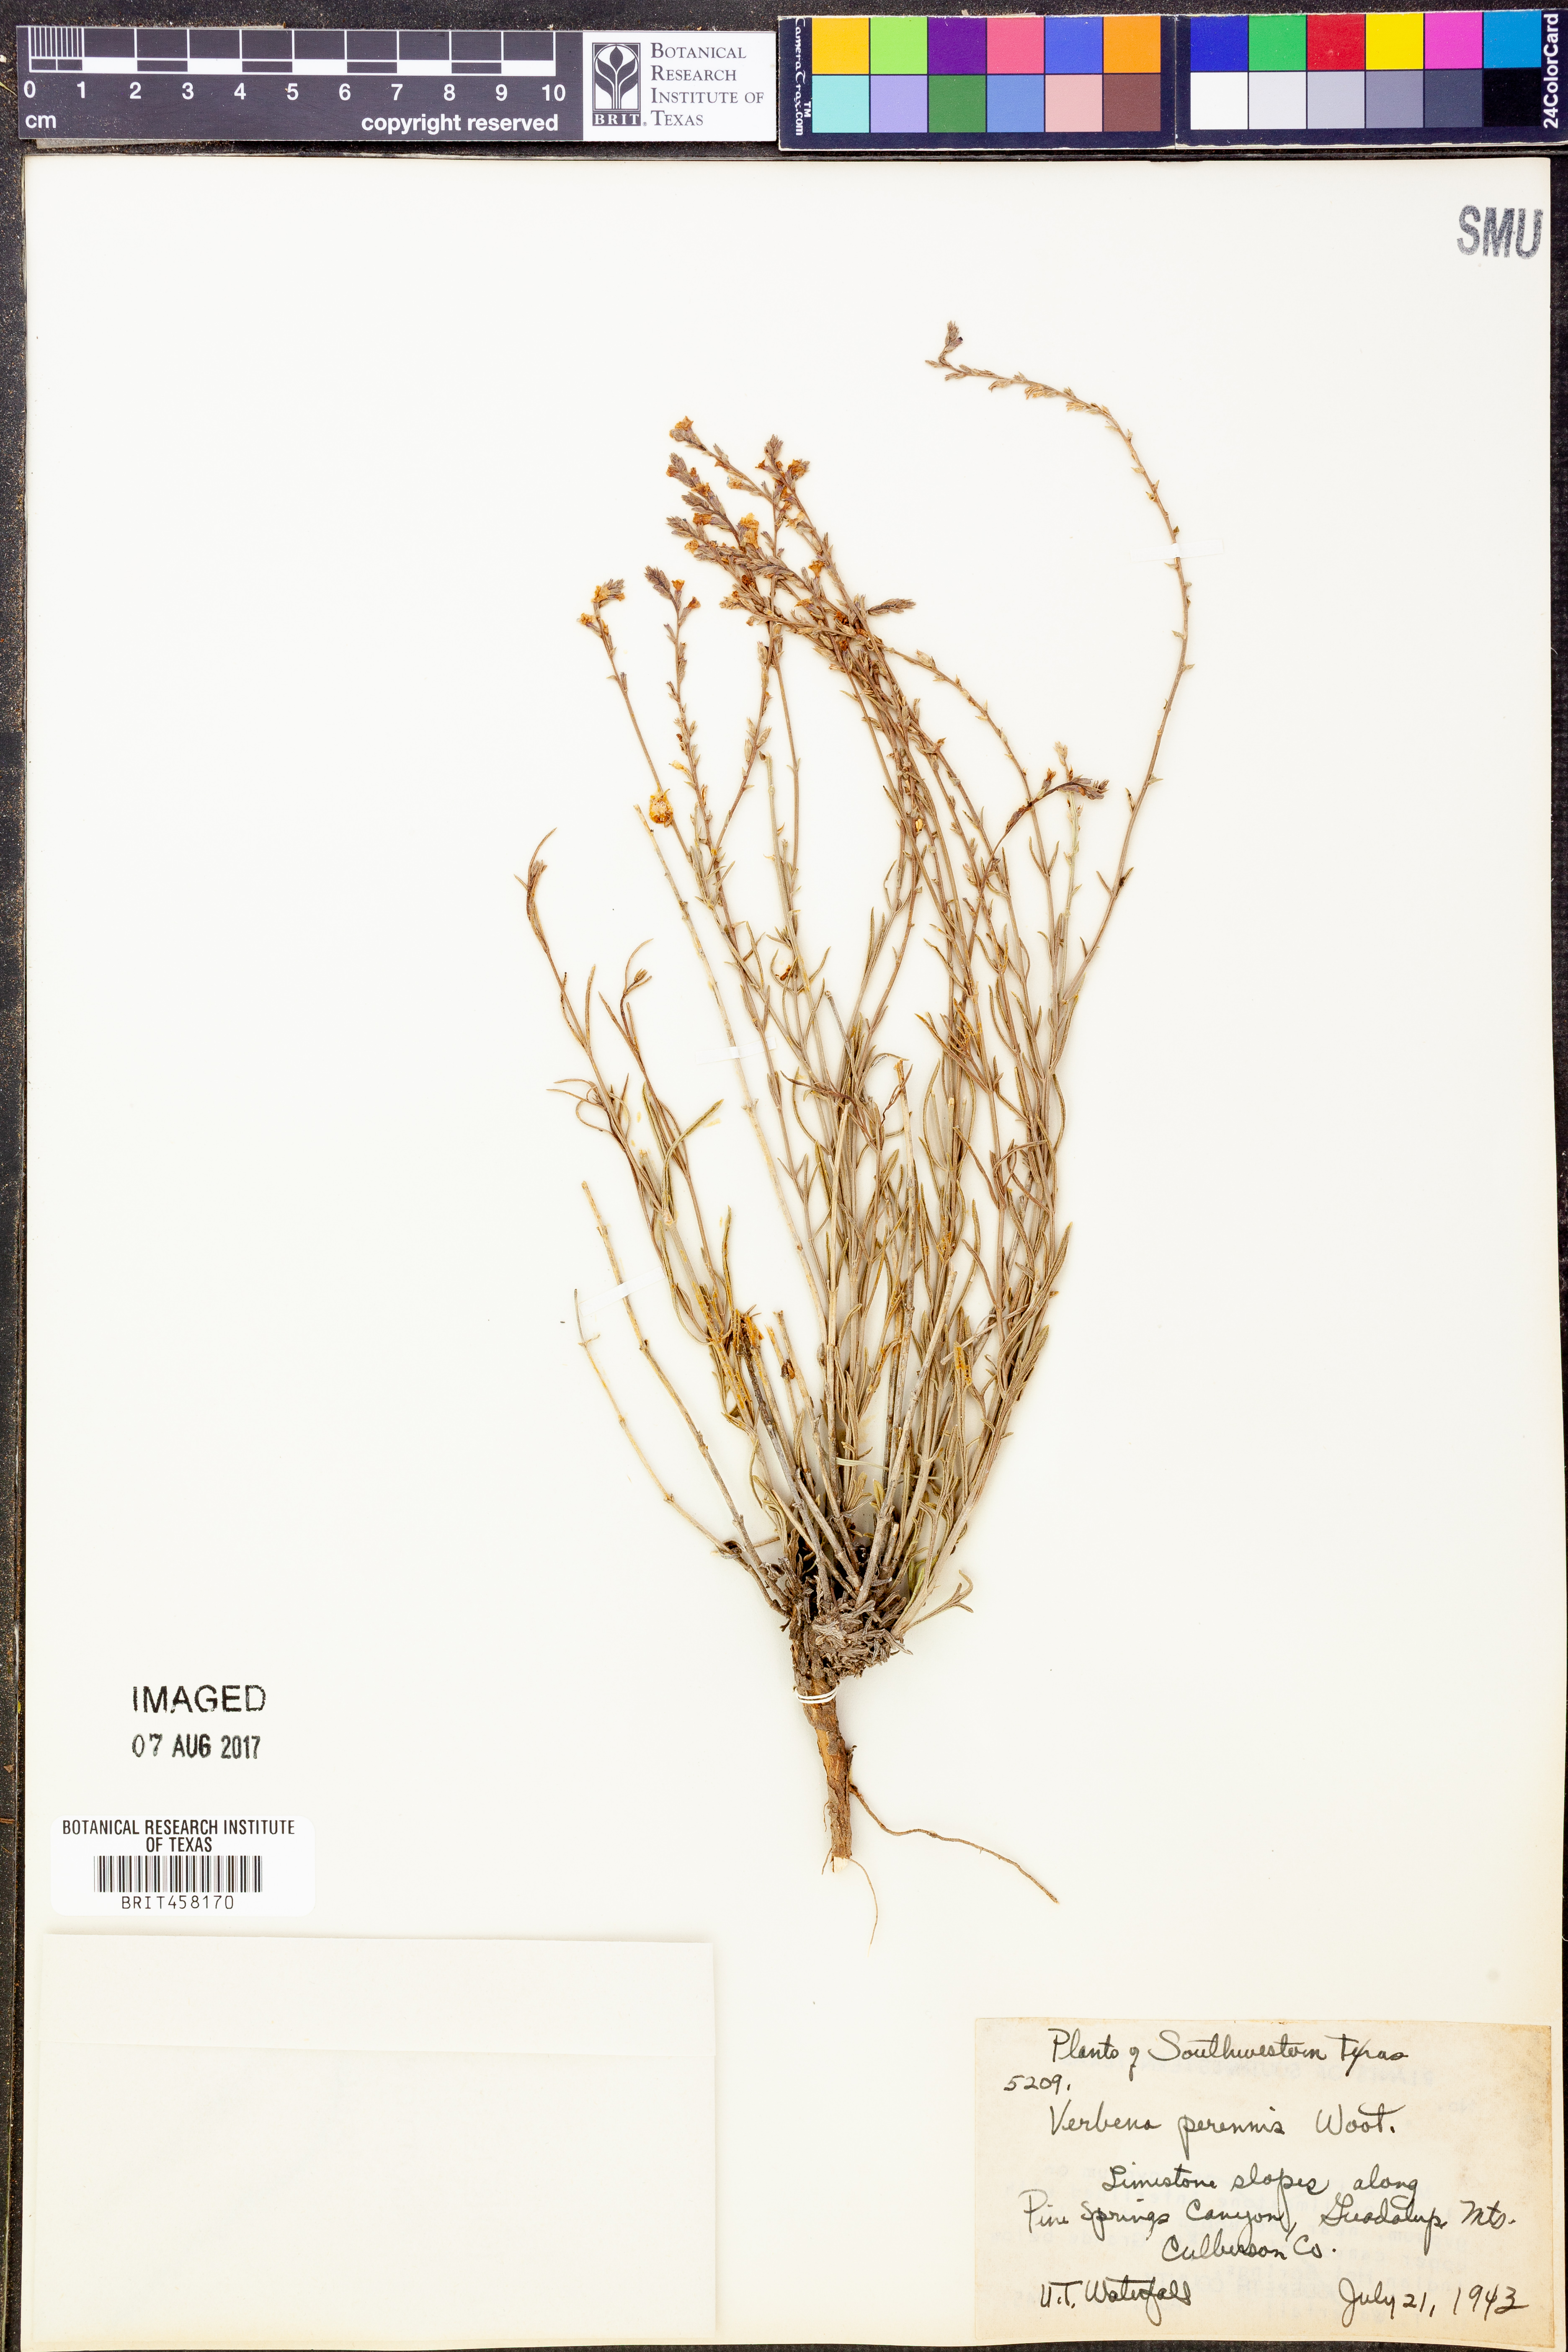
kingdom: Plantae
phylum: Tracheophyta
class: Magnoliopsida
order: Lamiales
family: Verbenaceae
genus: Verbena
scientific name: Verbena perennis
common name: Pin-leaf vervain
